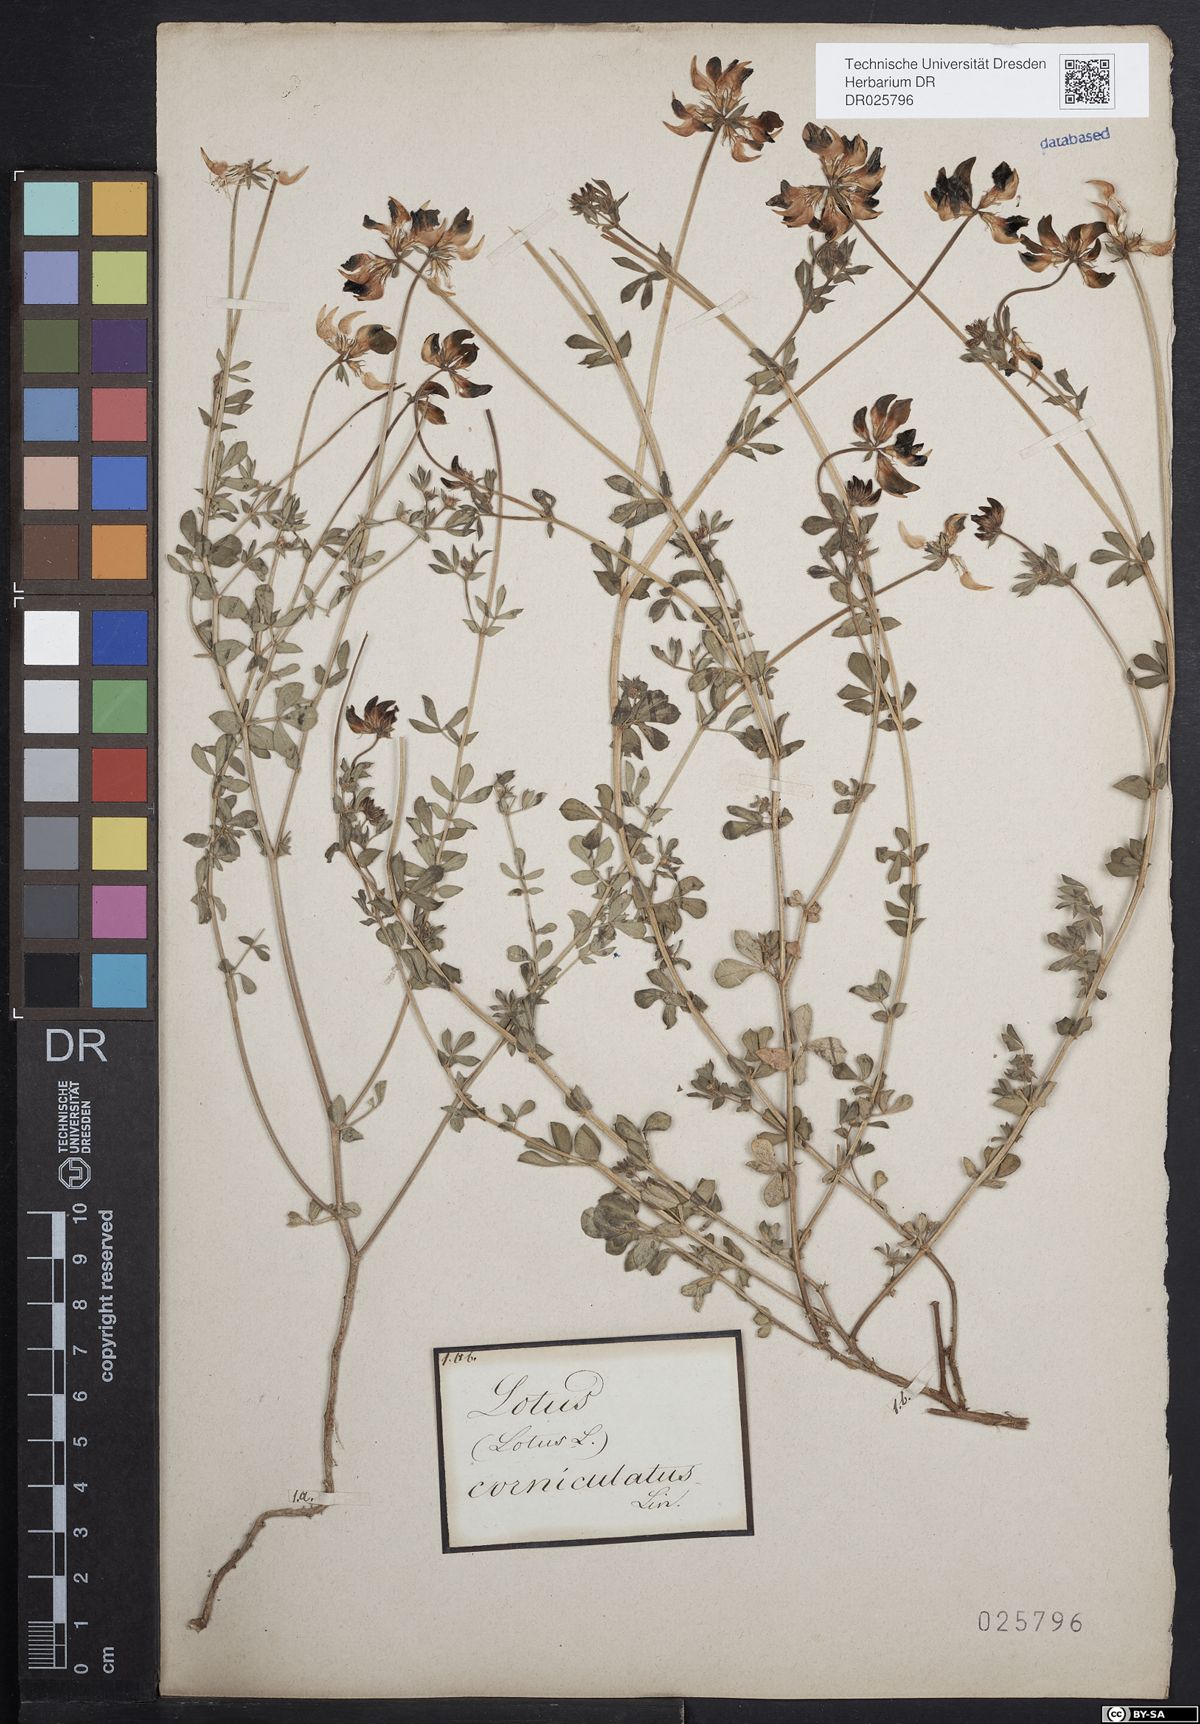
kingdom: Plantae
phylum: Tracheophyta
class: Magnoliopsida
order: Fabales
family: Fabaceae
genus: Lotus
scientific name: Lotus corniculatus
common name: Common bird's-foot-trefoil
